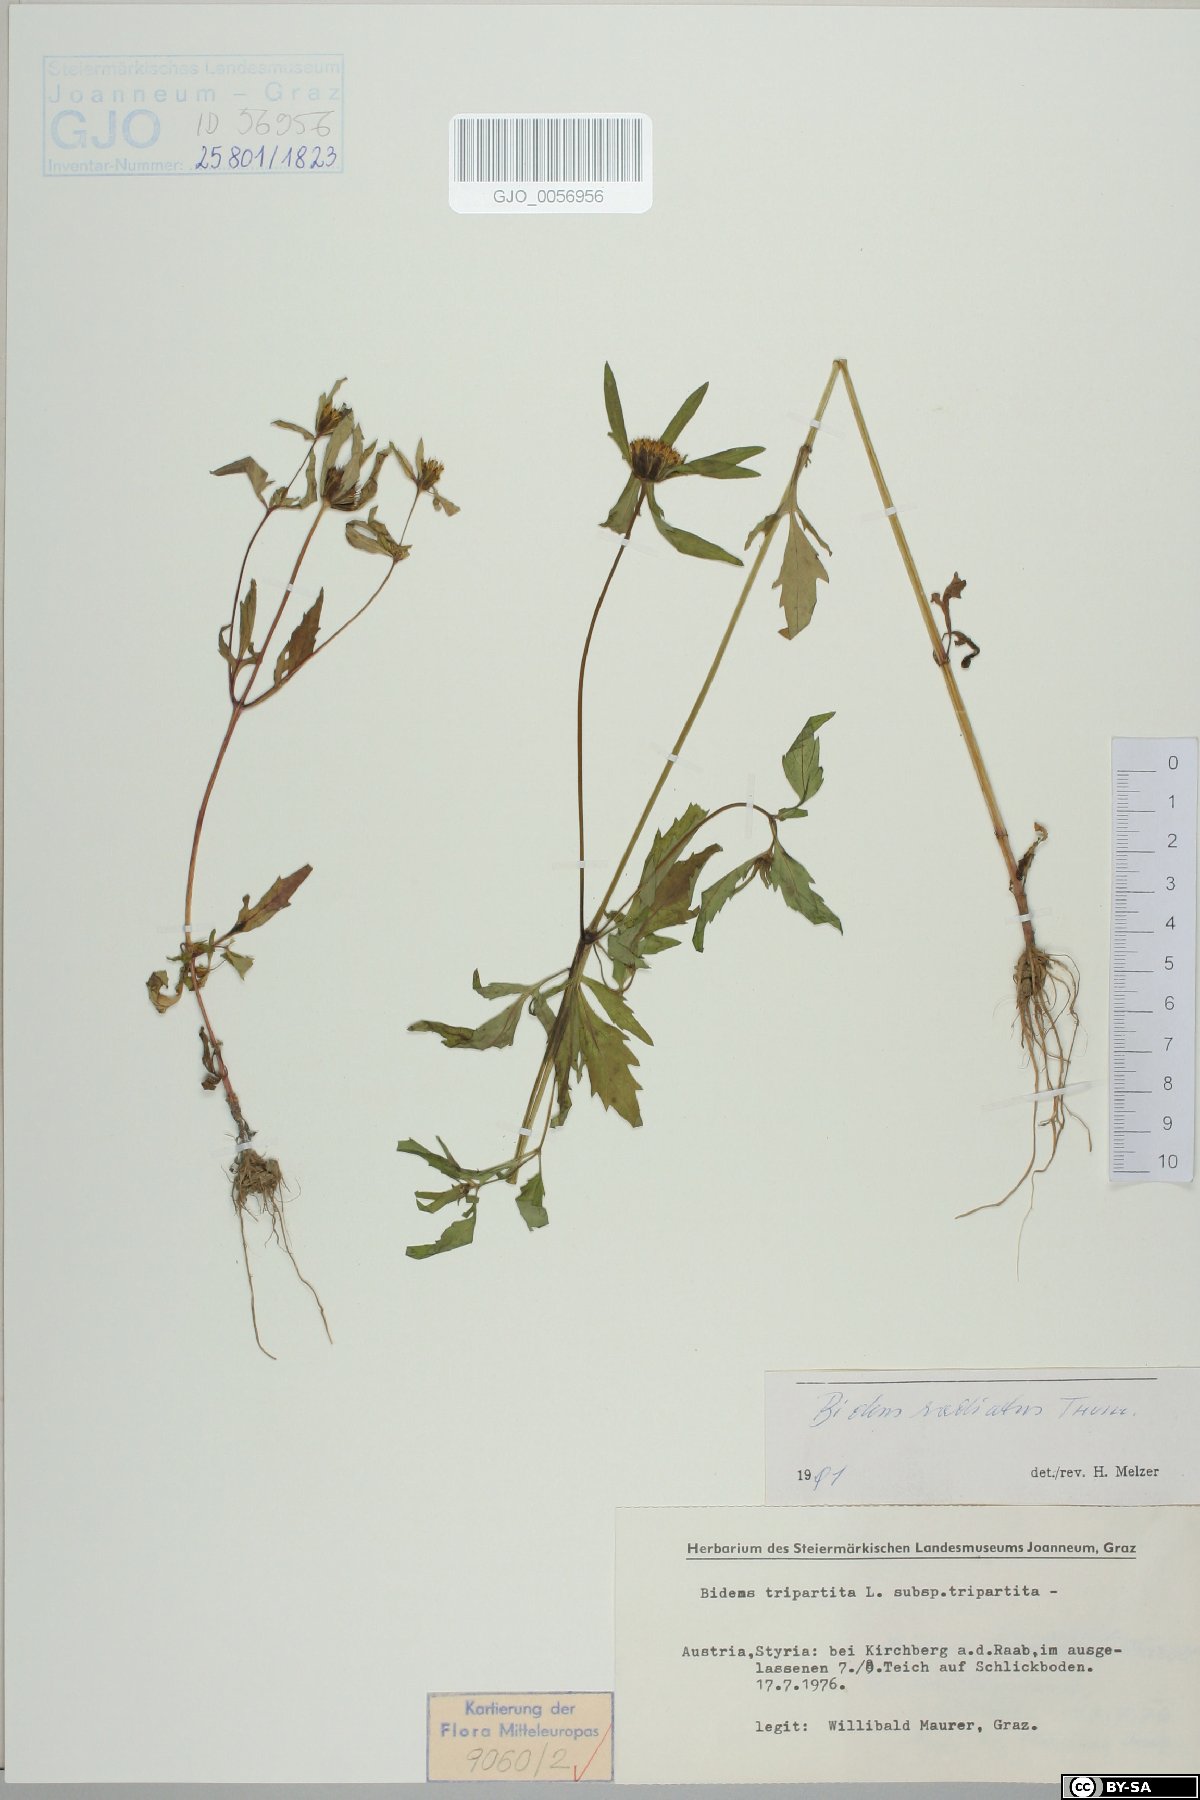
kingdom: Plantae
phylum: Tracheophyta
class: Magnoliopsida
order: Asterales
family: Asteraceae
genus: Bidens
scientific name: Bidens radiata
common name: Radiating bur-marigold
